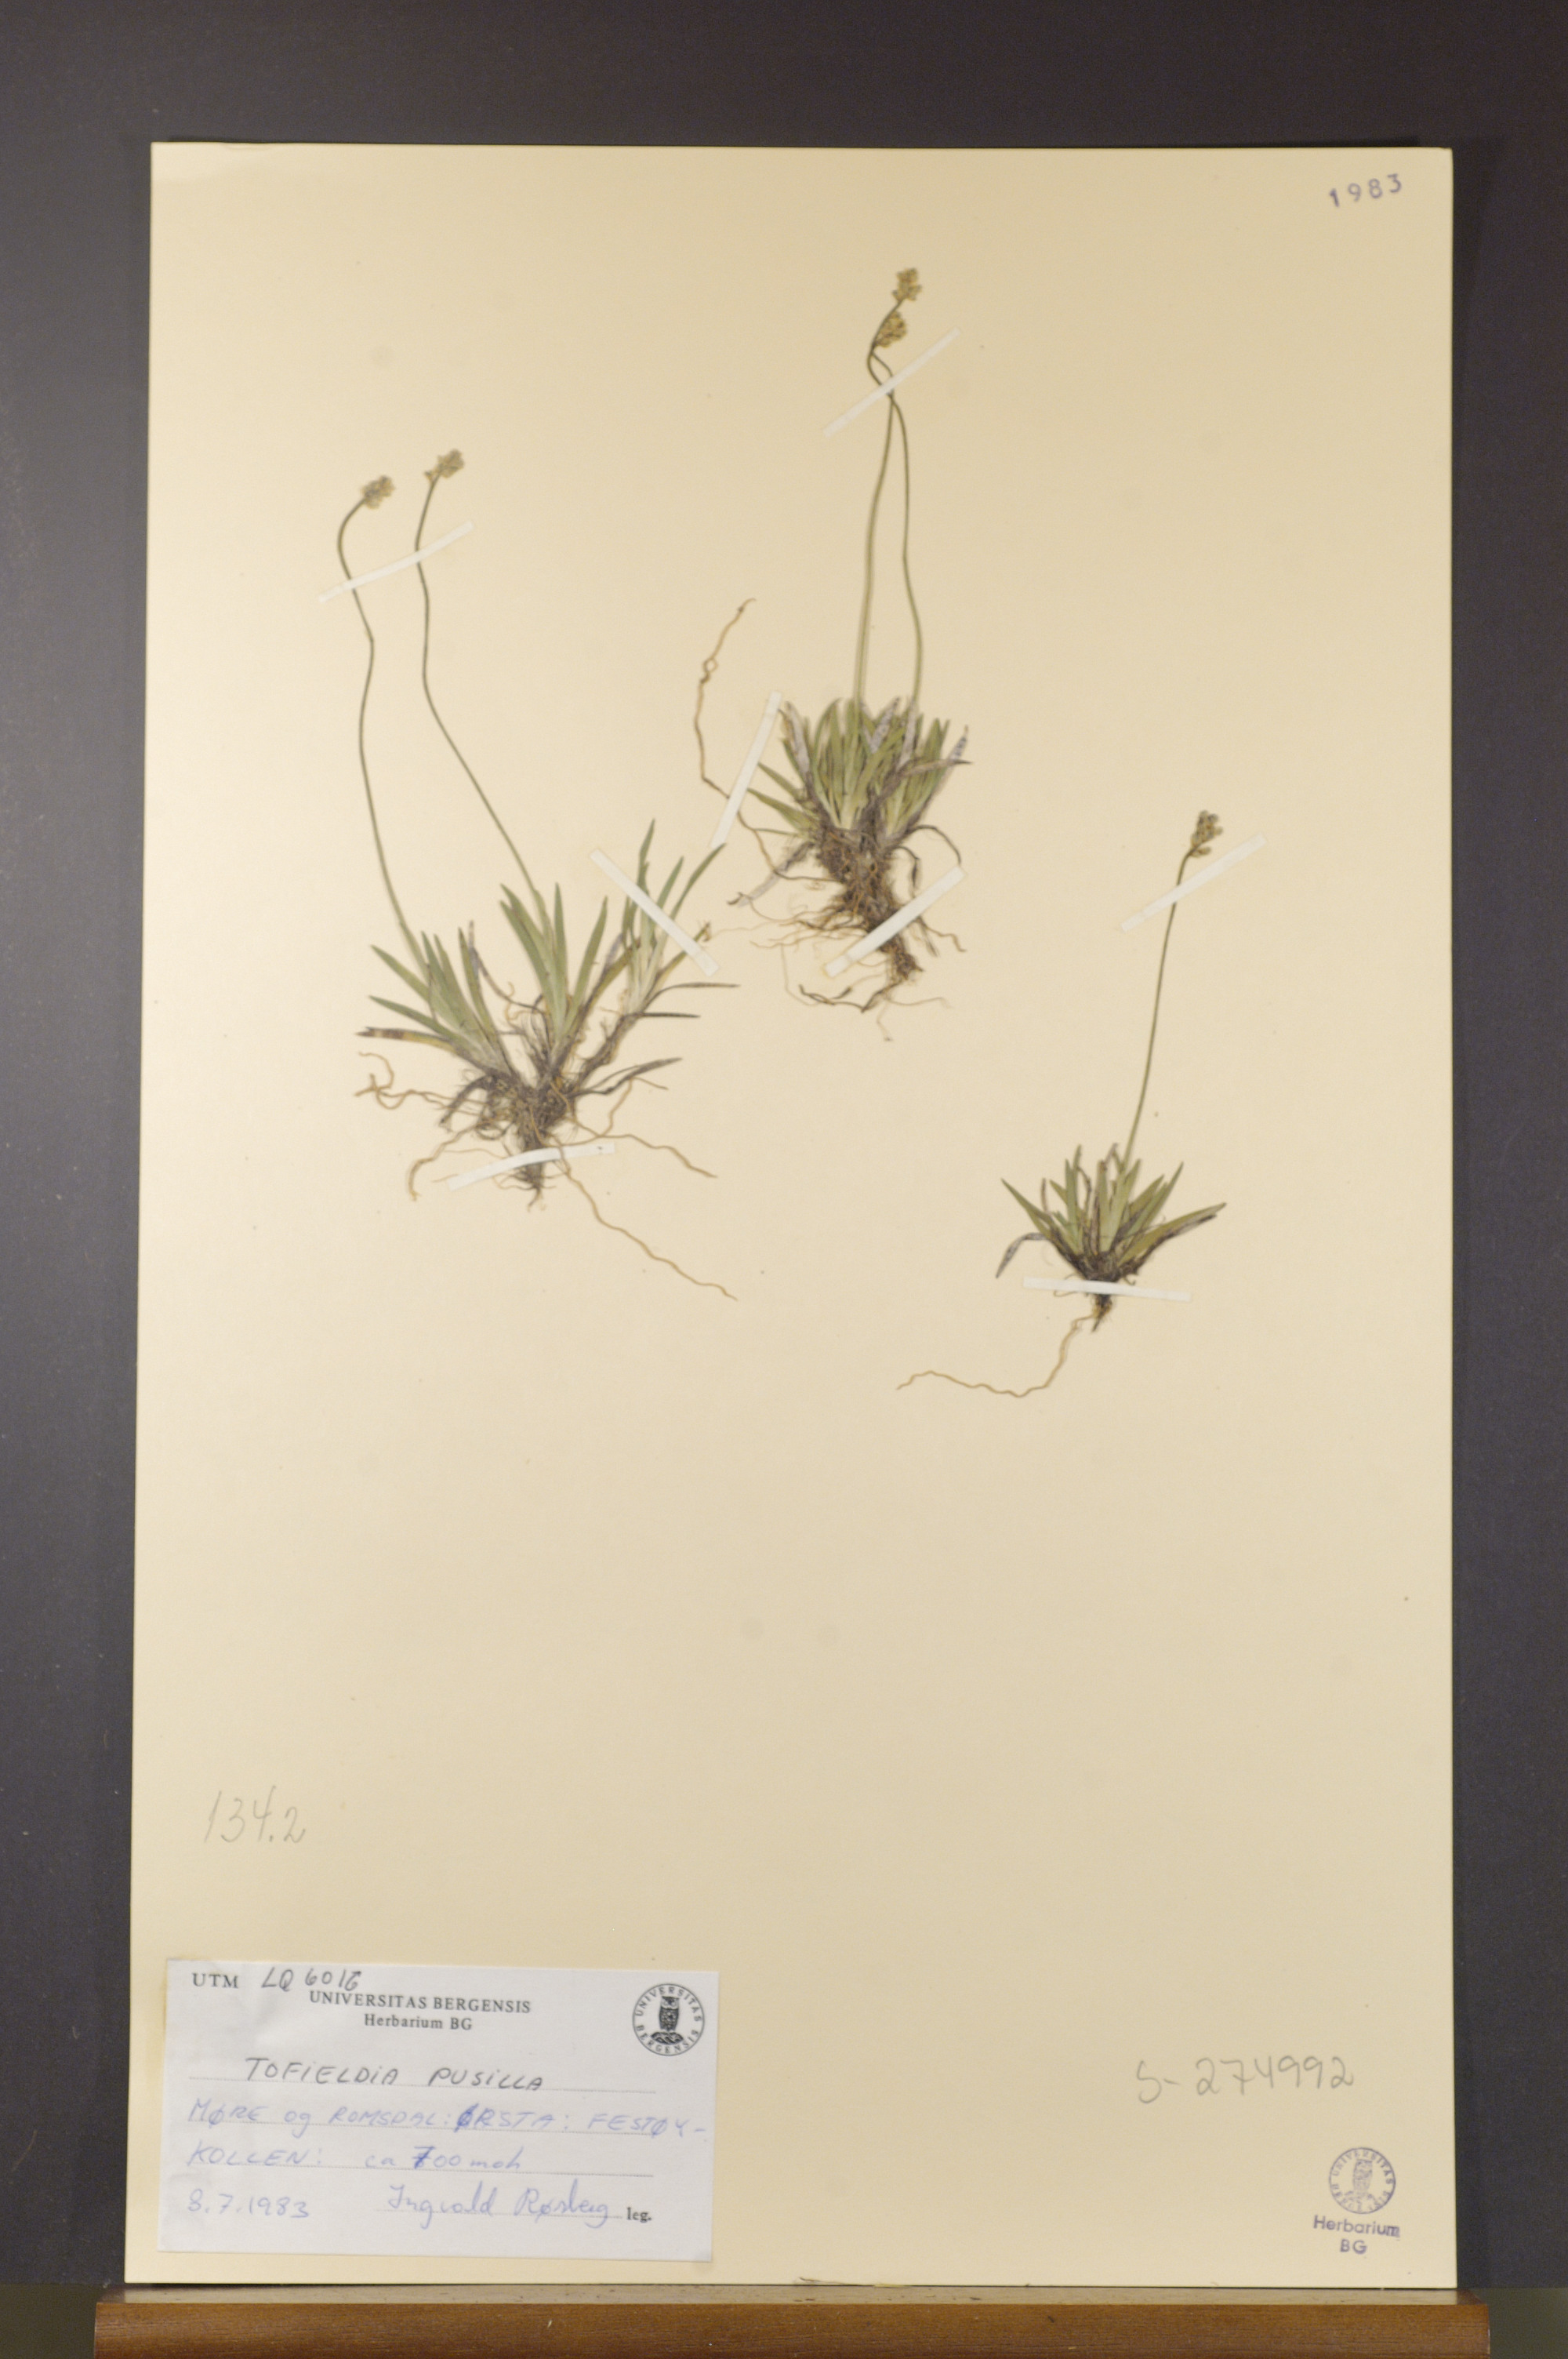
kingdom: Plantae
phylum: Tracheophyta
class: Liliopsida
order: Alismatales
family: Tofieldiaceae
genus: Tofieldia
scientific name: Tofieldia pusilla
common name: Scottish false asphodel
